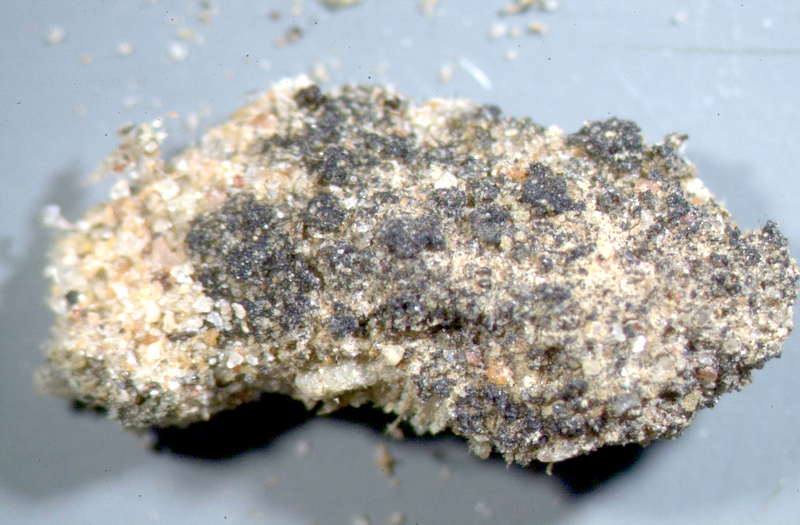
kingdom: Fungi
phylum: Ascomycota
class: Lichinomycetes
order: Lichinales
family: Lichinaceae
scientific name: Lichinaceae
